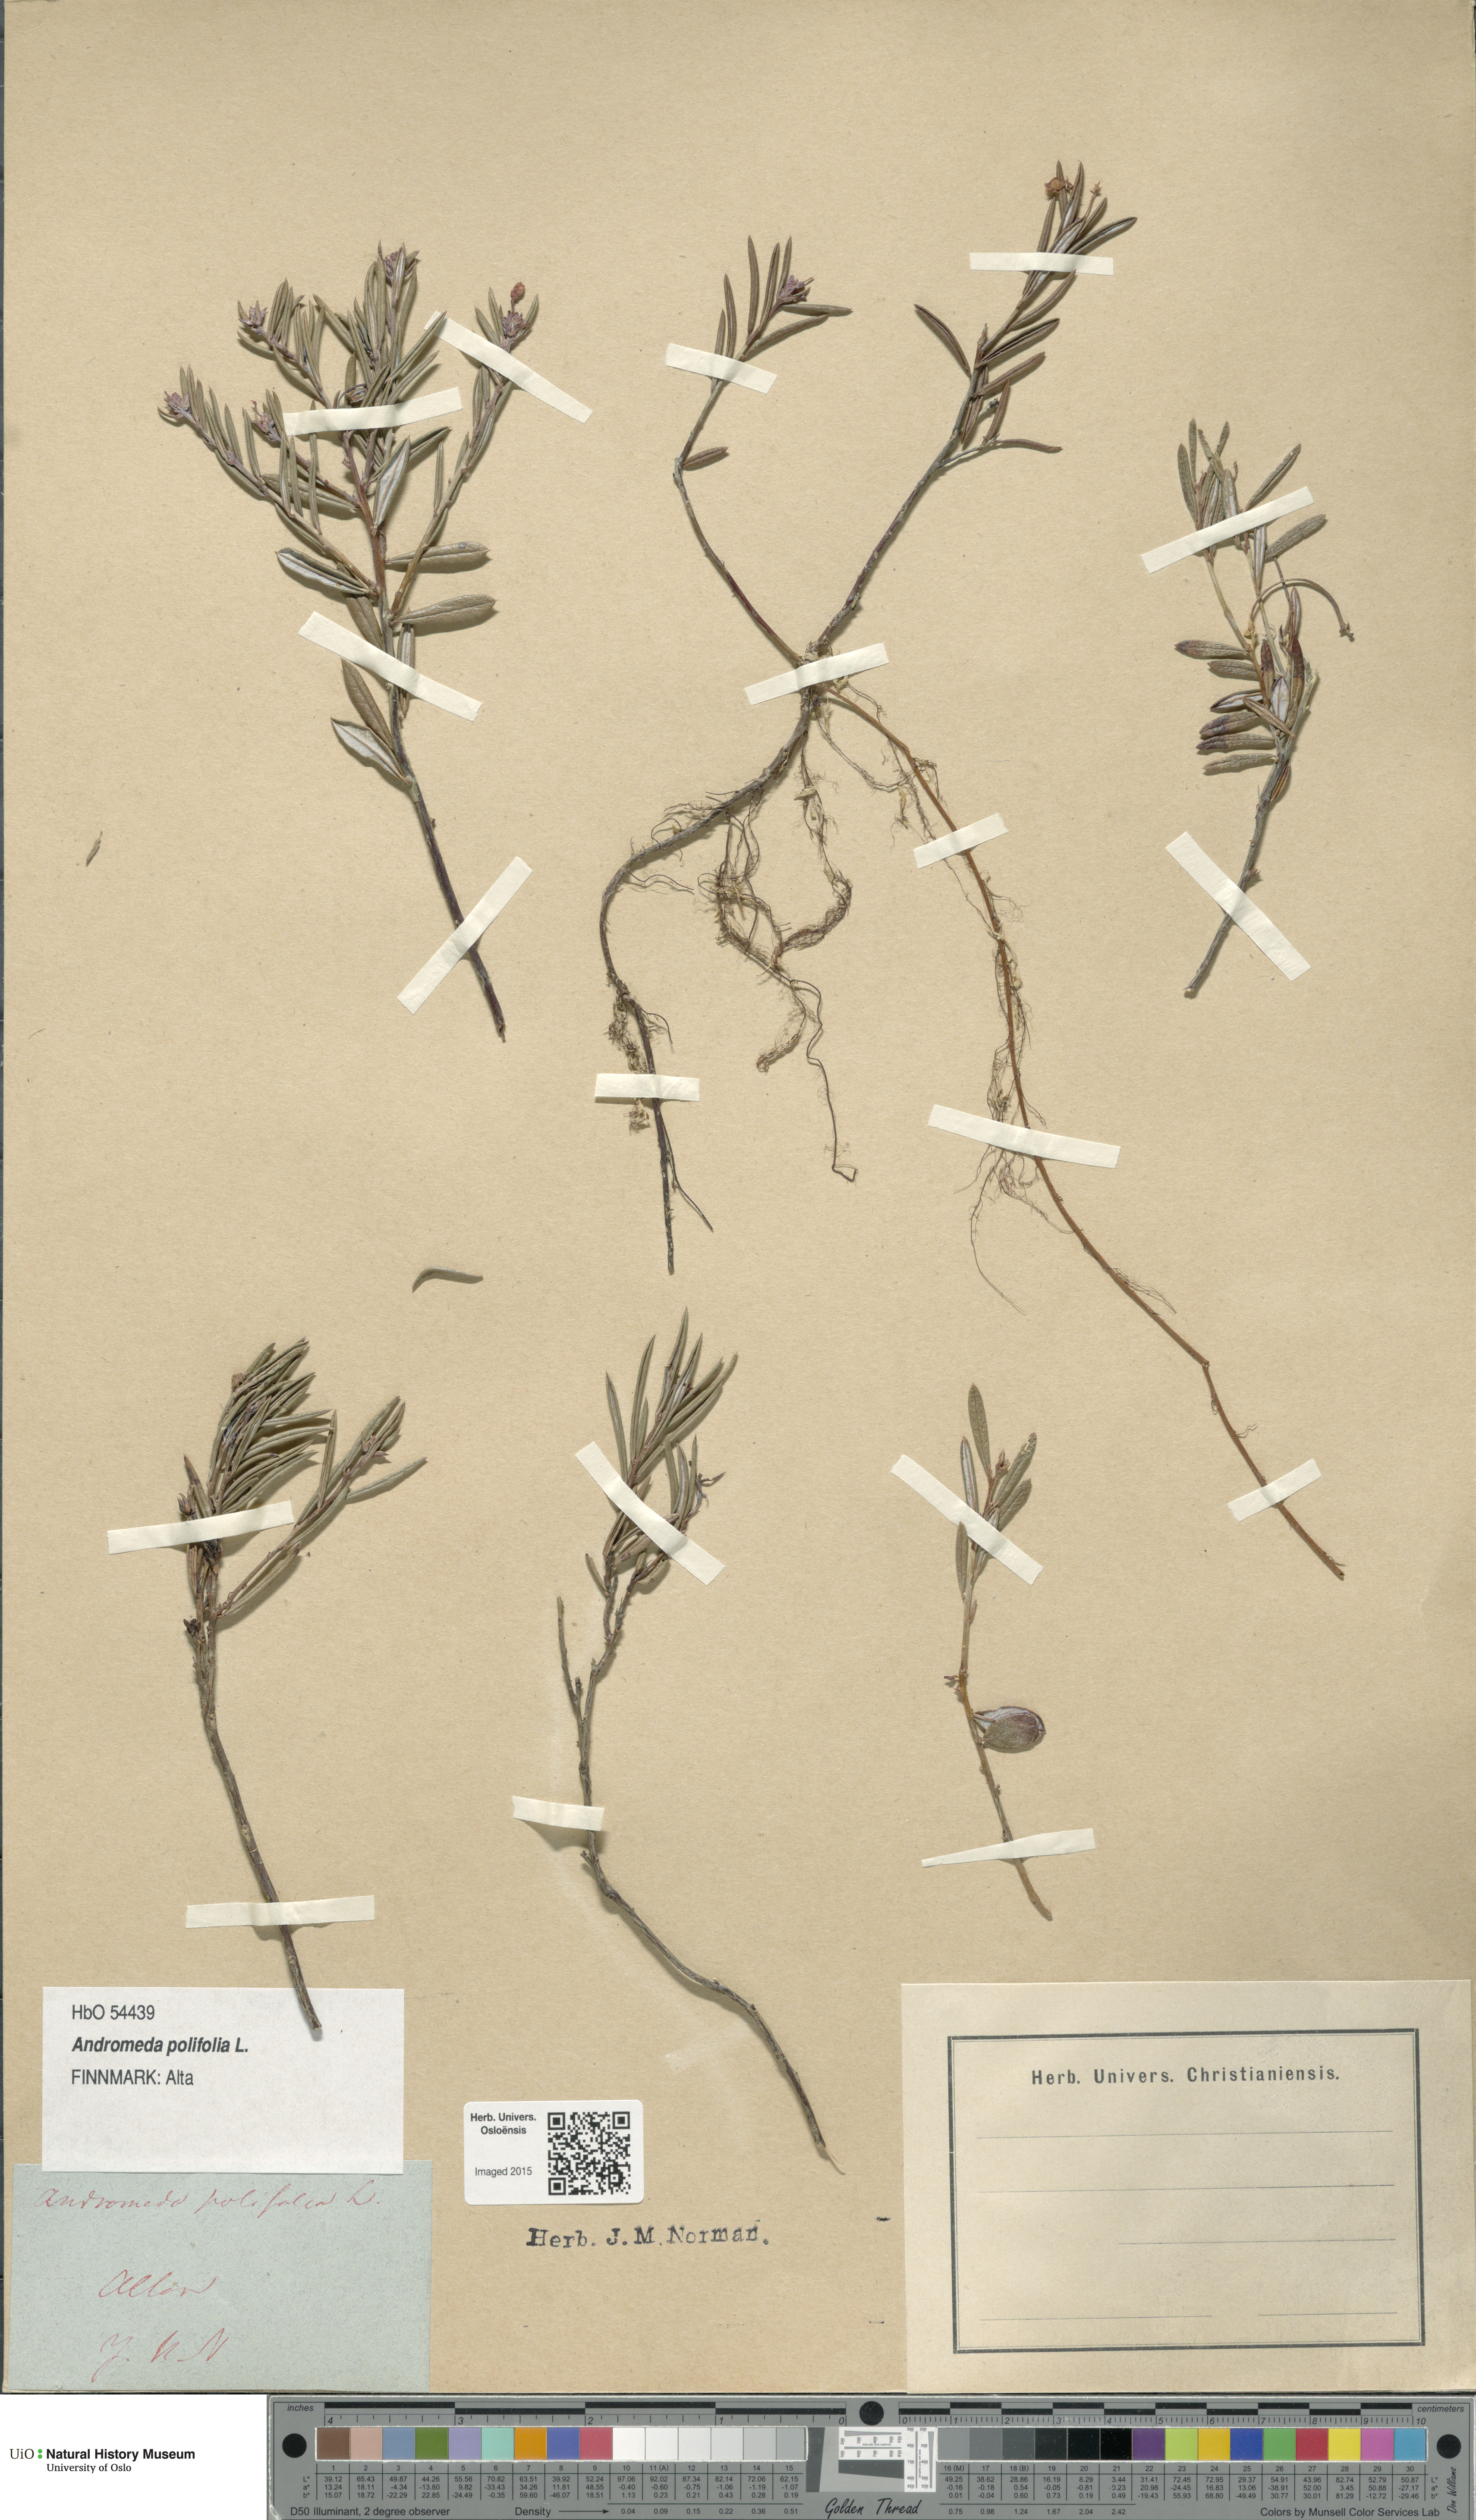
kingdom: Plantae
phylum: Tracheophyta
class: Magnoliopsida
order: Ericales
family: Ericaceae
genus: Andromeda
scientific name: Andromeda polifolia
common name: Bog-rosemary
